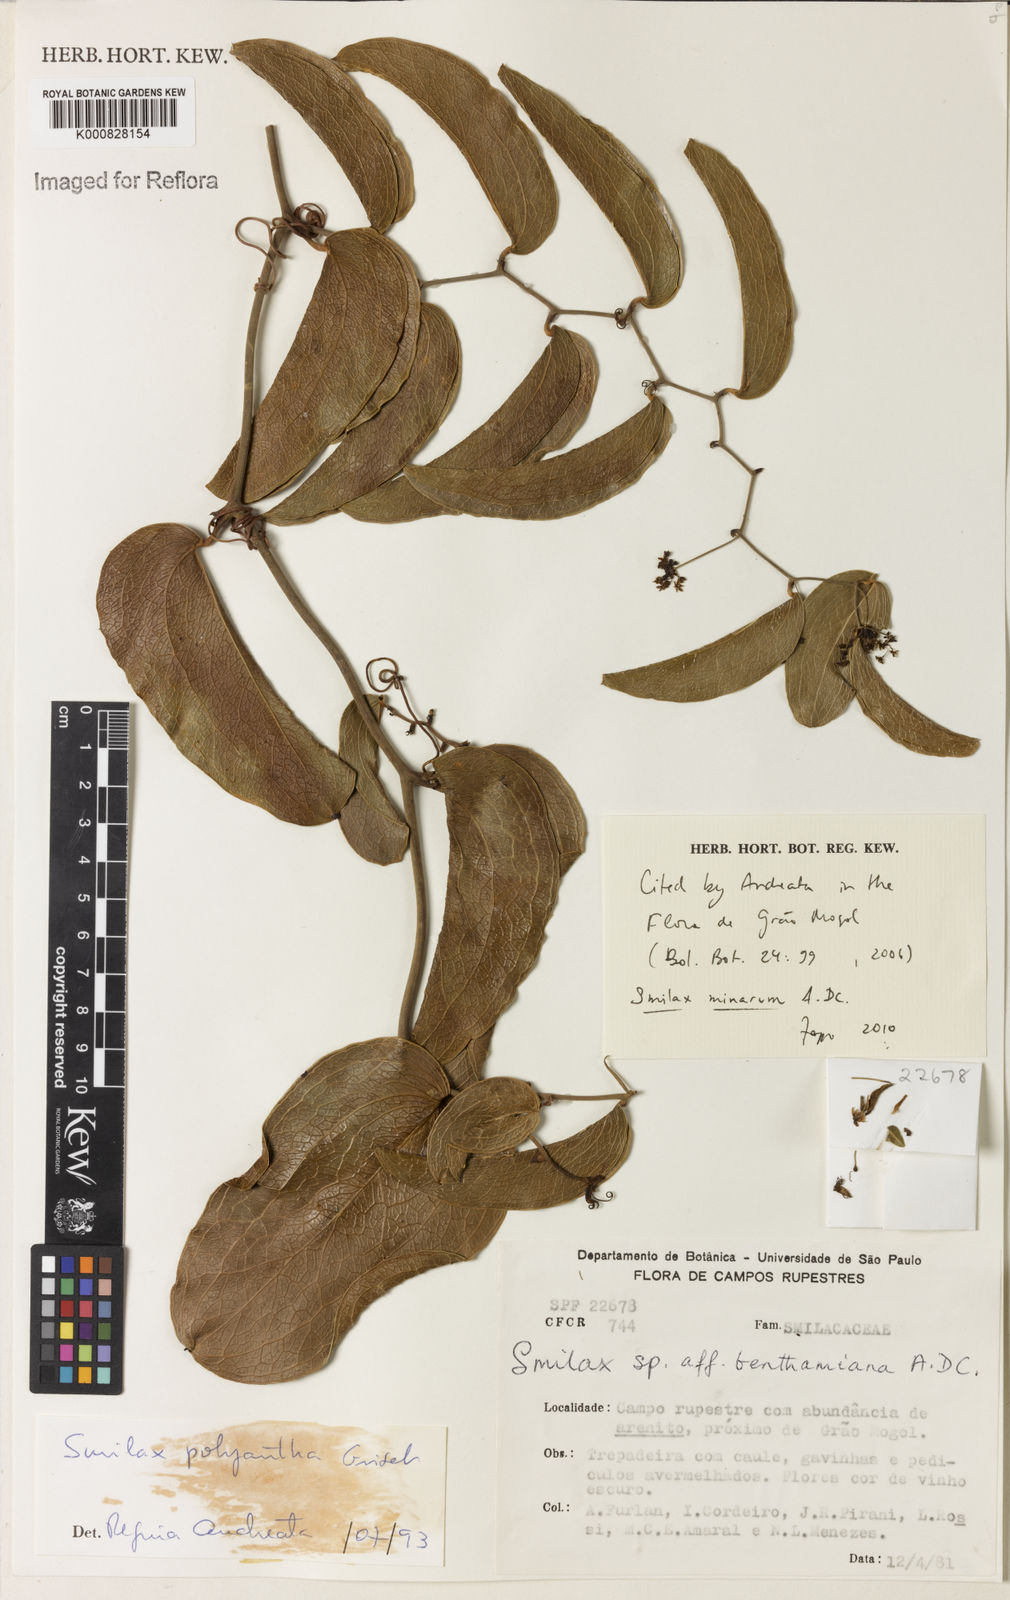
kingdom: Plantae
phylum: Tracheophyta
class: Liliopsida
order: Liliales
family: Smilacaceae
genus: Smilax
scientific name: Smilax minarum
